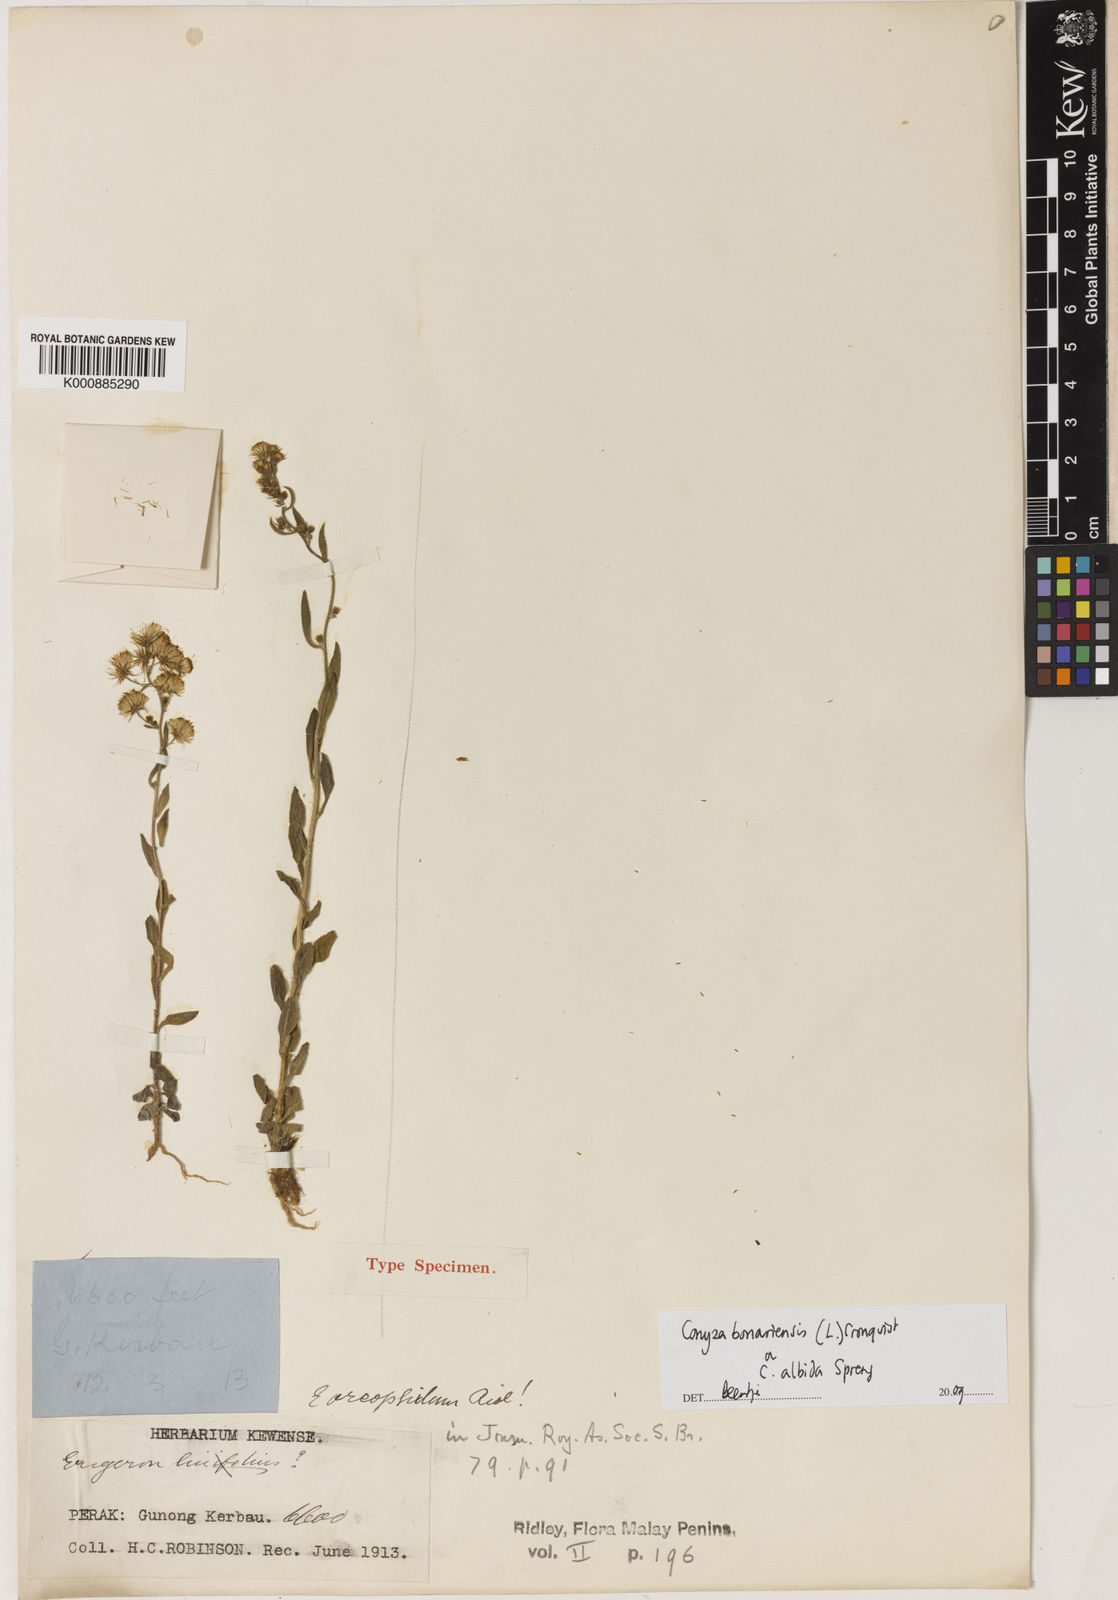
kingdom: Plantae
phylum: Tracheophyta
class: Magnoliopsida
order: Asterales
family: Asteraceae
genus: Conyza
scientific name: Conyza
